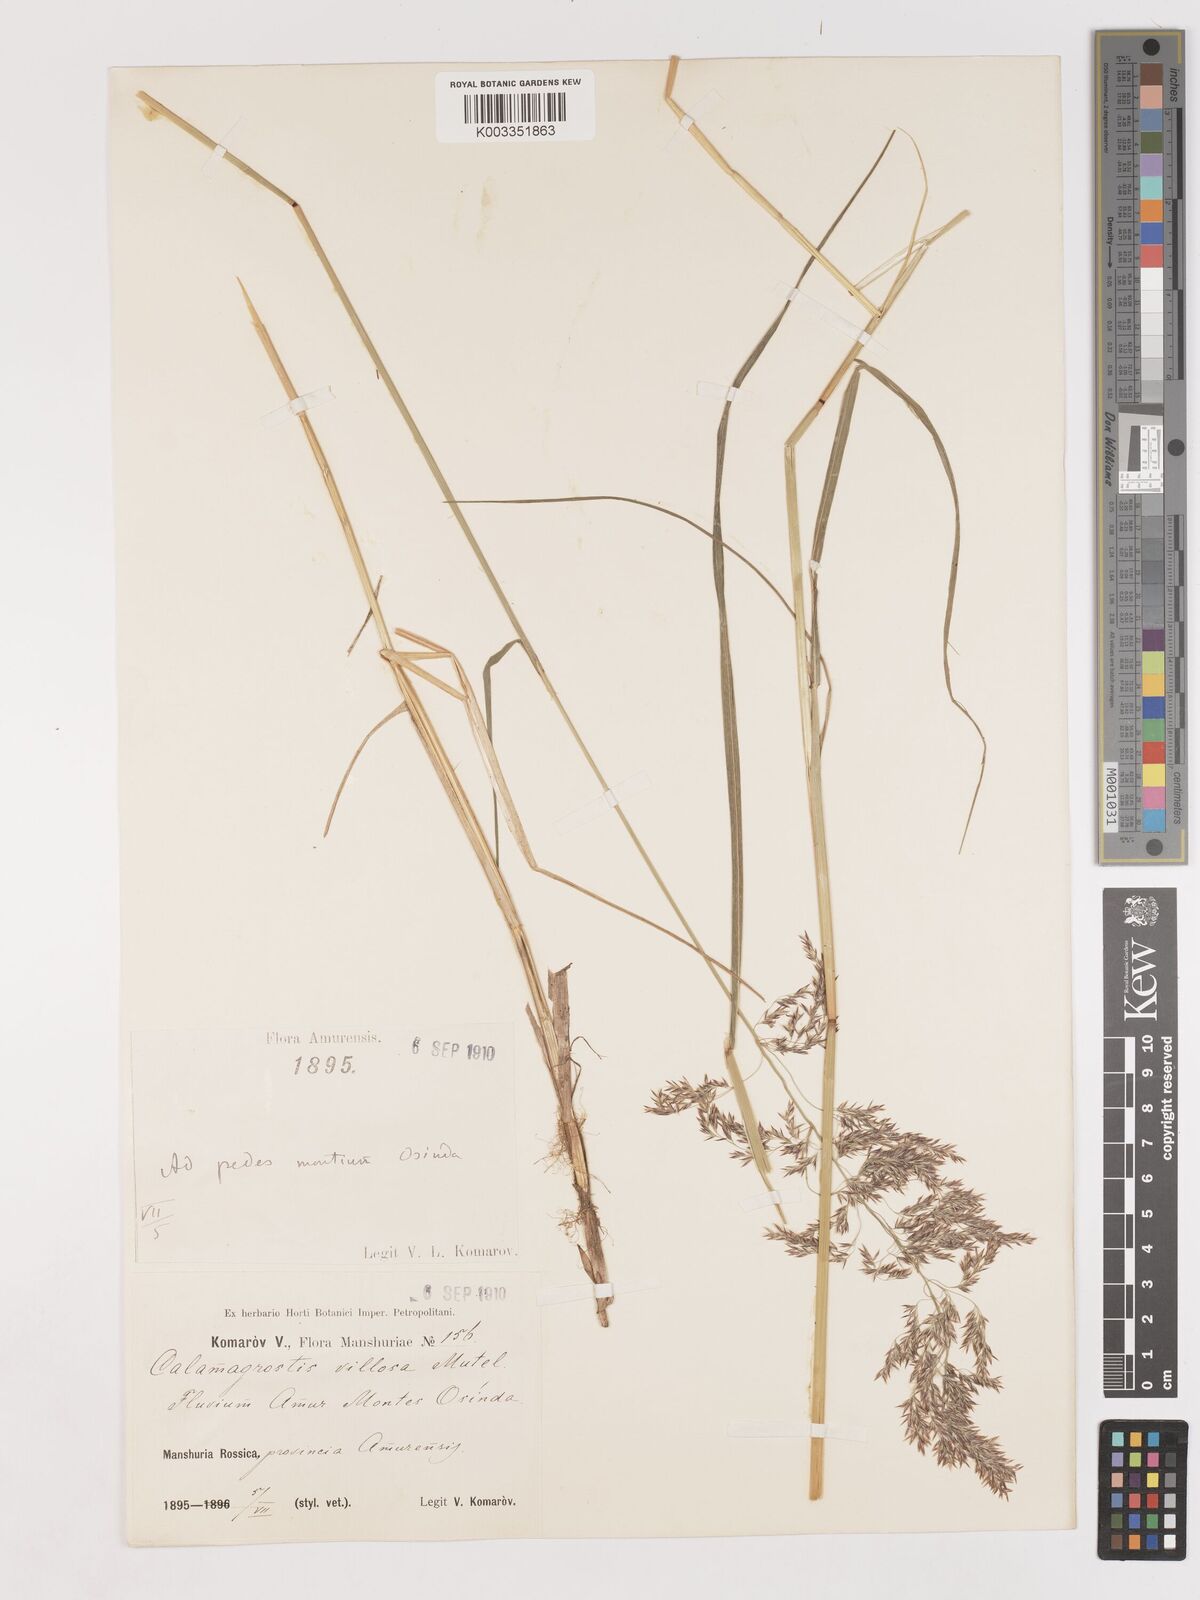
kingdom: Plantae
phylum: Tracheophyta
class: Liliopsida
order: Poales
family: Poaceae
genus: Calamagrostis
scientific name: Calamagrostis villosa
